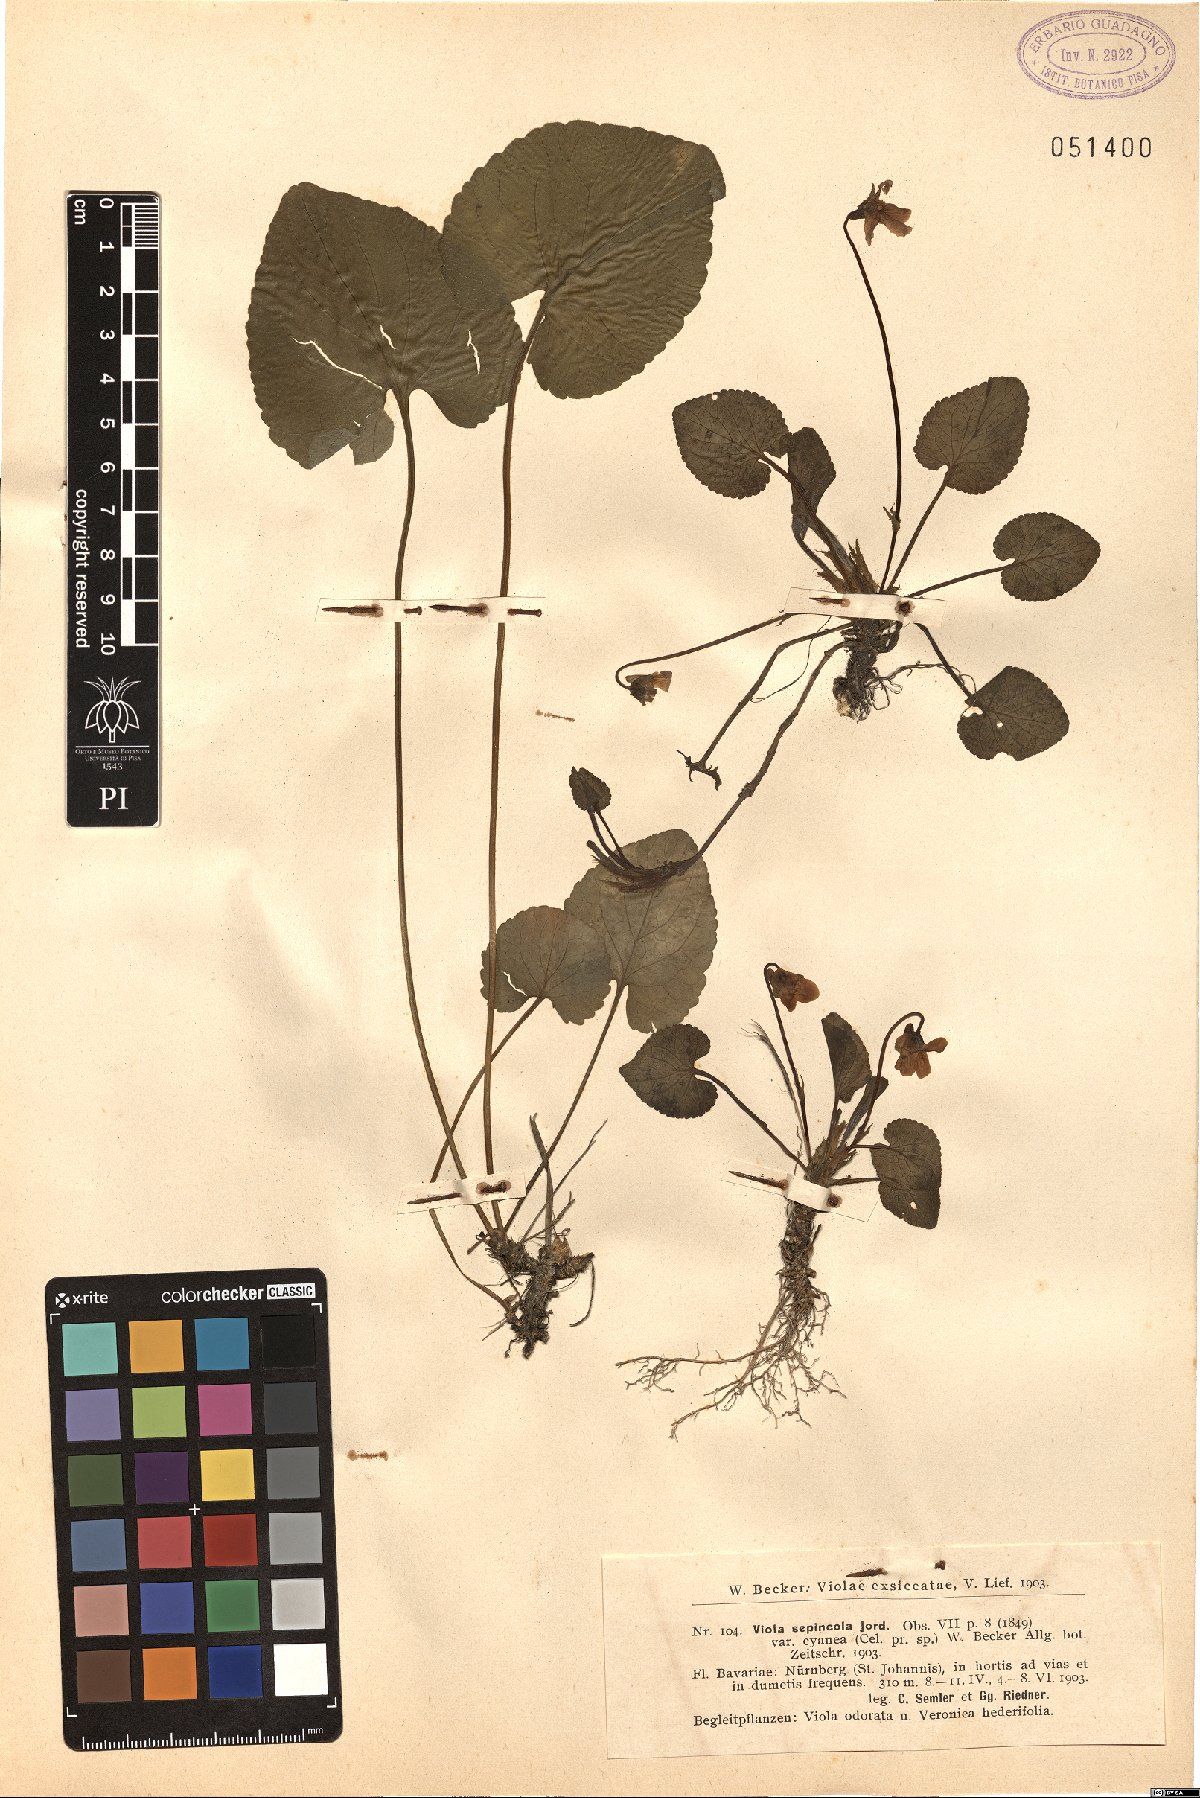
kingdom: Plantae
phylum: Tracheophyta
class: Magnoliopsida
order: Malpighiales
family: Violaceae
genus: Viola
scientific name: Viola suavis
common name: Russian violet
